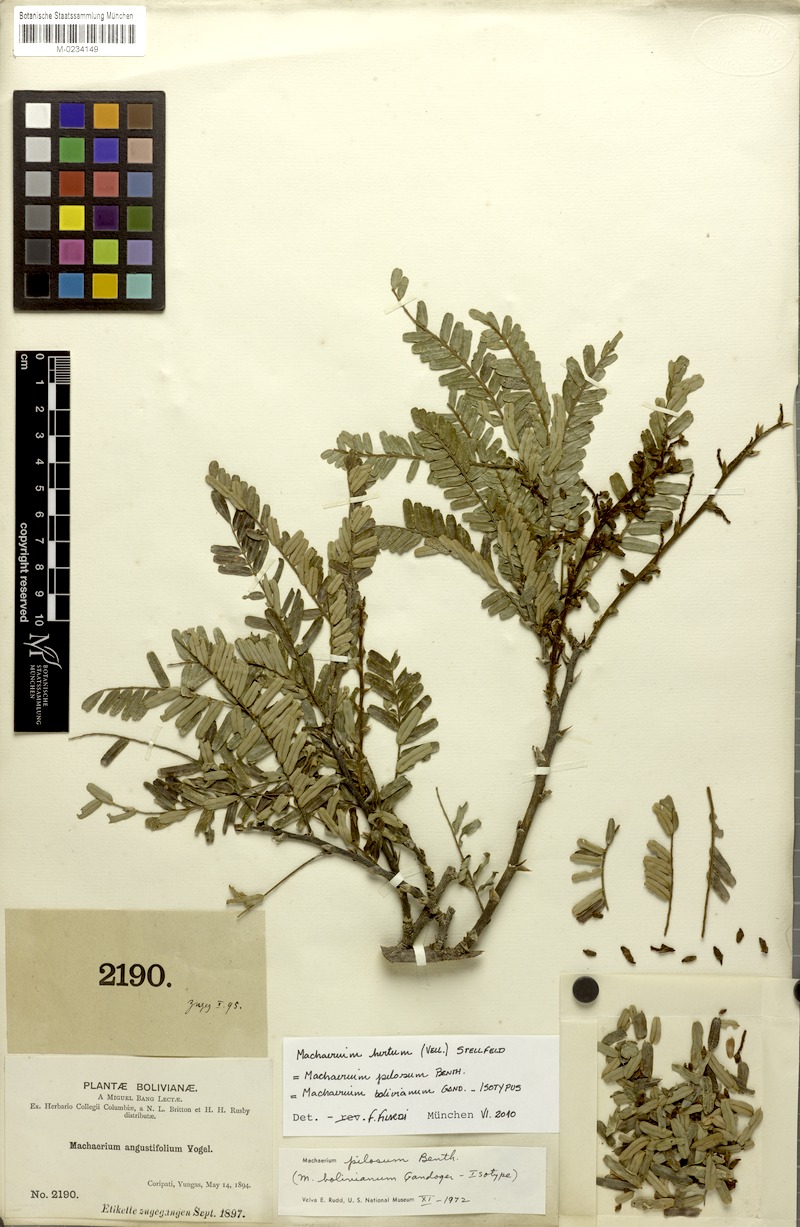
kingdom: Plantae
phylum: Tracheophyta
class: Magnoliopsida
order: Fabales
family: Fabaceae
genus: Machaerium
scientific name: Machaerium hirtum
